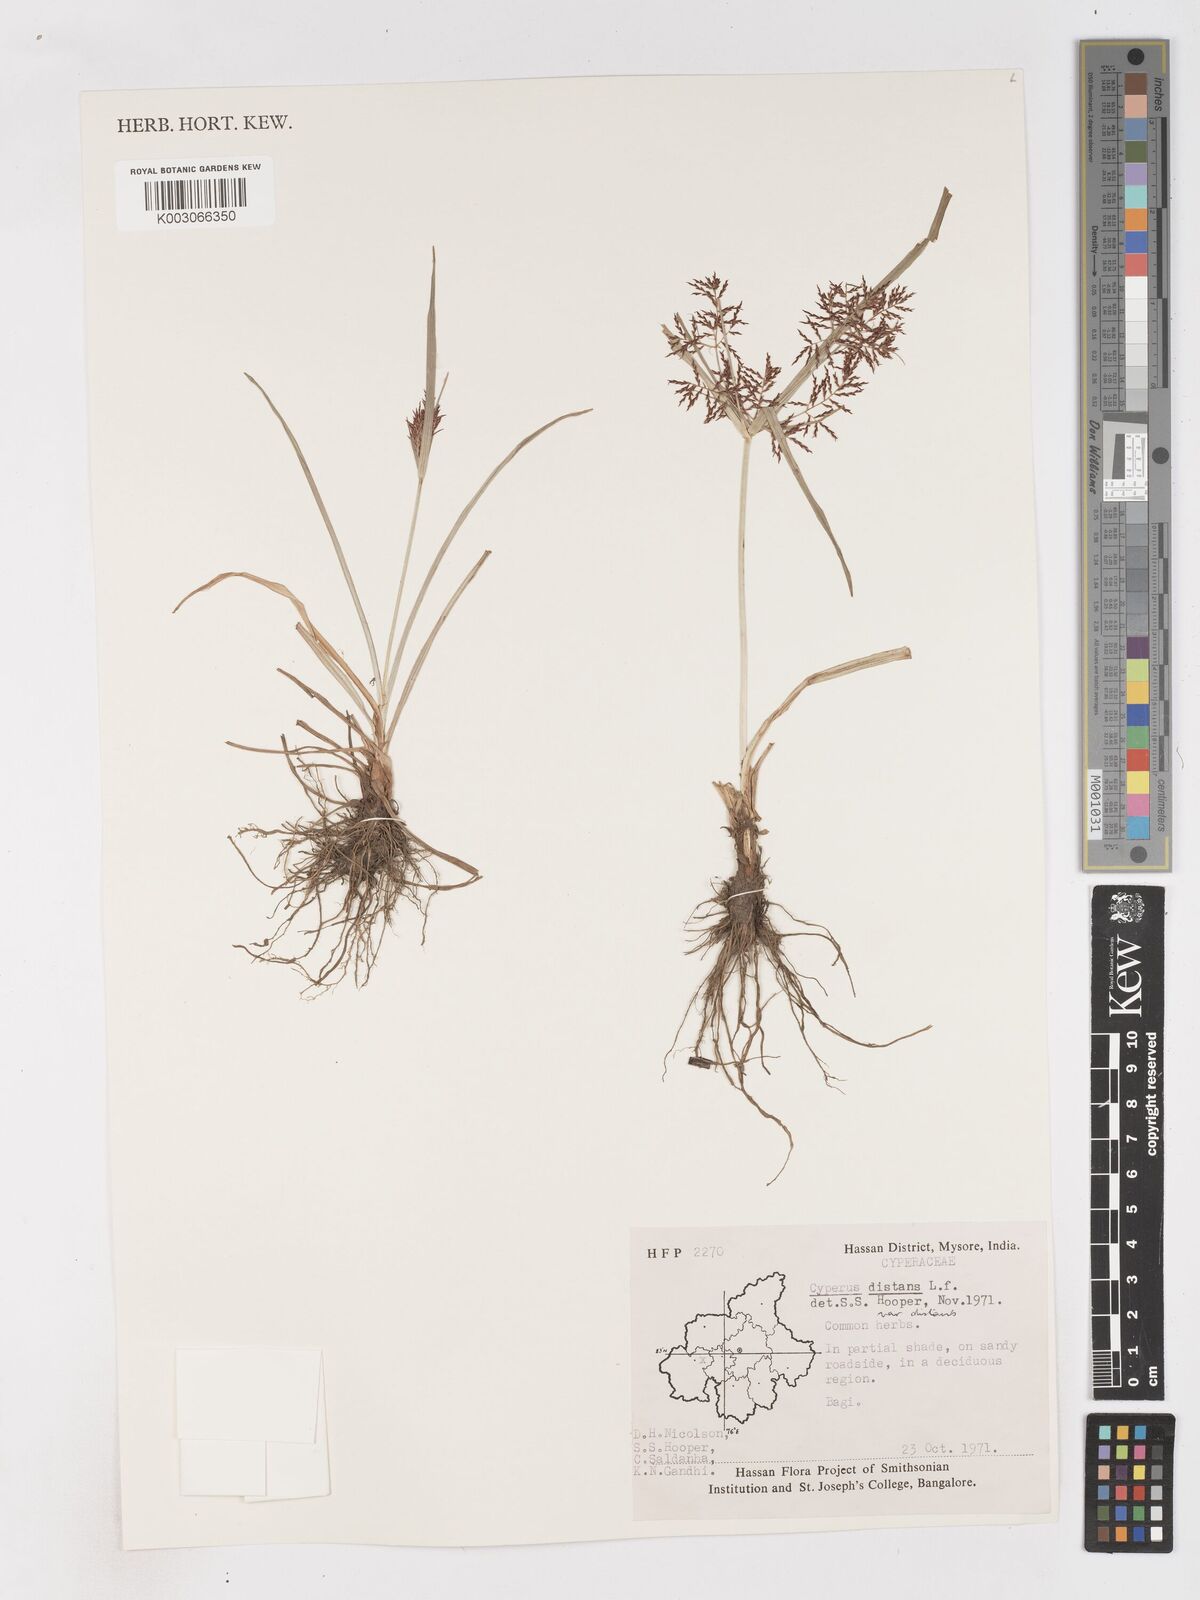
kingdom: Plantae
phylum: Tracheophyta
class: Liliopsida
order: Poales
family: Cyperaceae
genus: Cyperus
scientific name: Cyperus distans
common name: Slender cyperus
